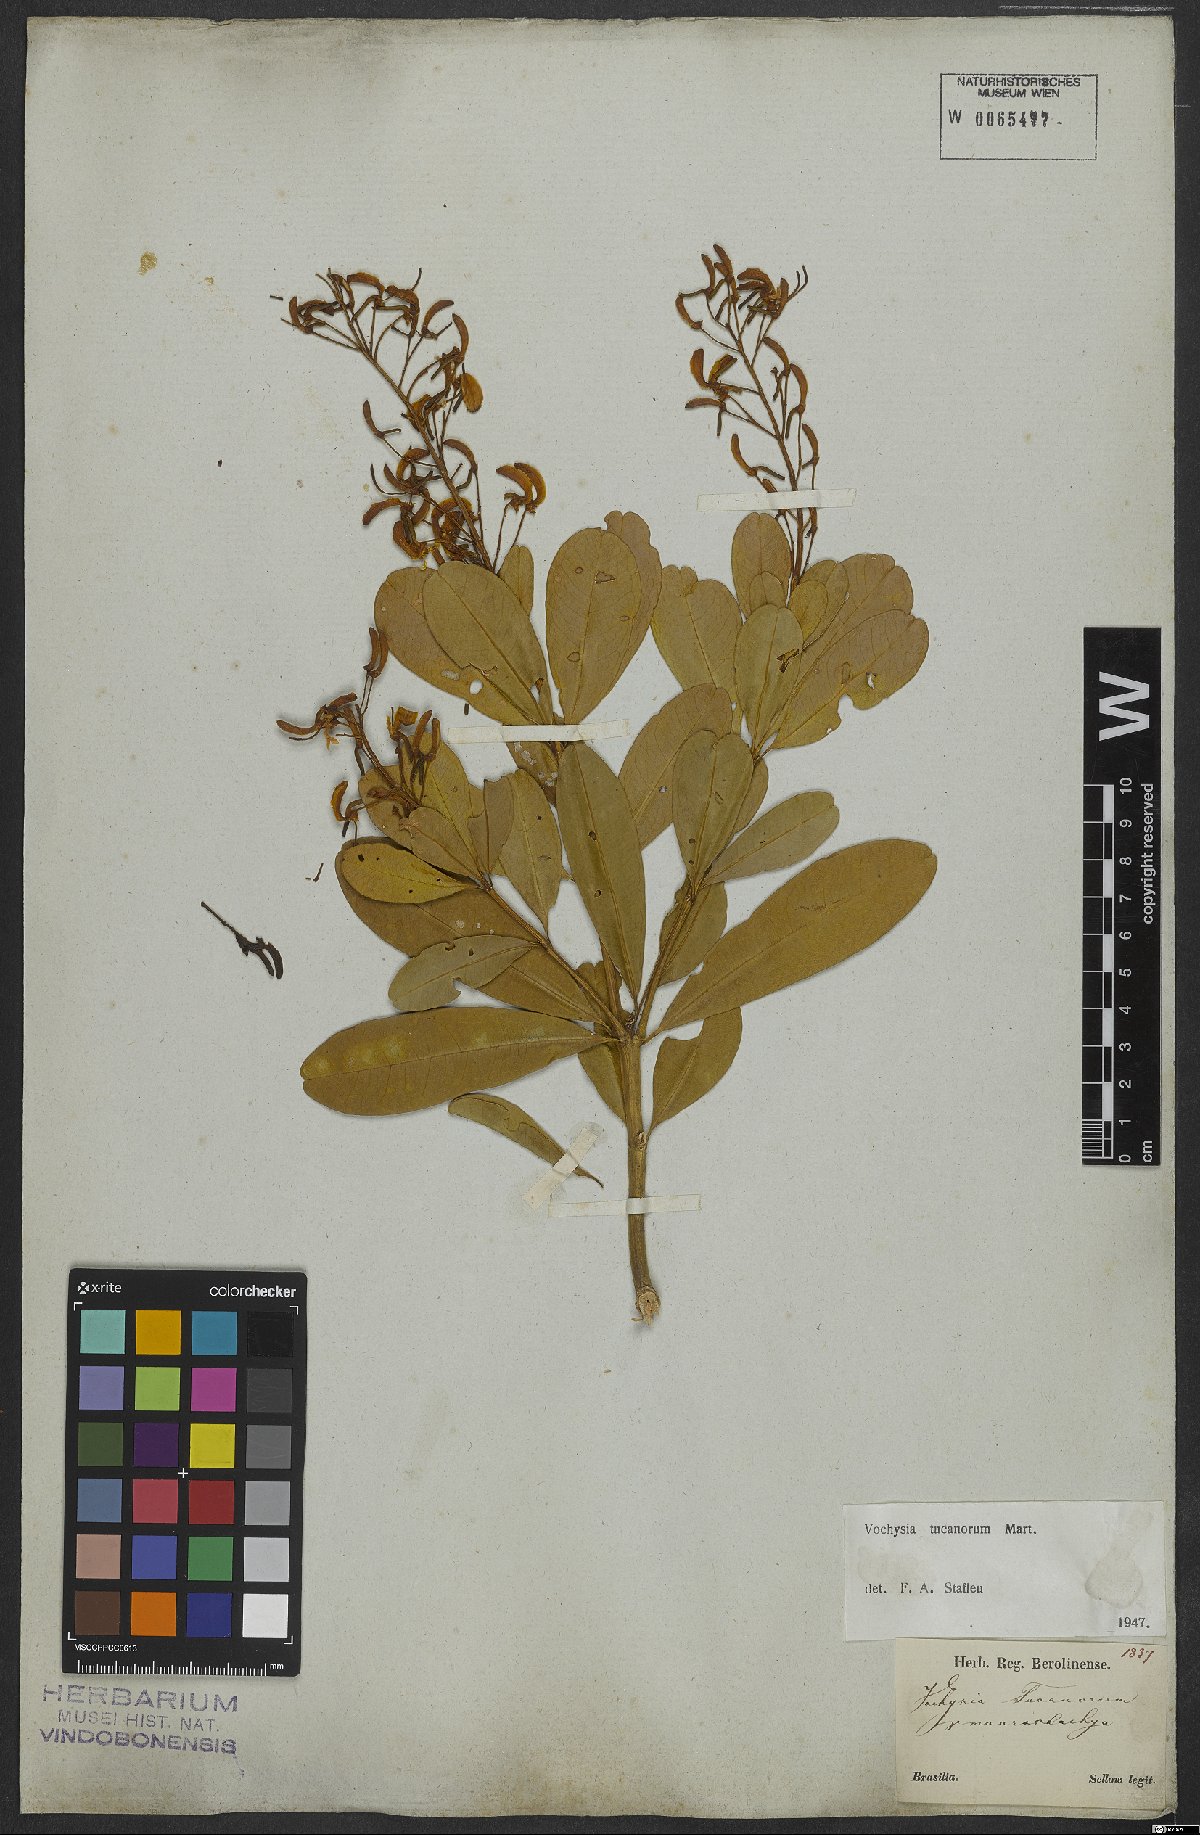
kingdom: Plantae
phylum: Tracheophyta
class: Magnoliopsida
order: Myrtales
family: Vochysiaceae
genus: Vochysia
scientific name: Vochysia tucanorum
